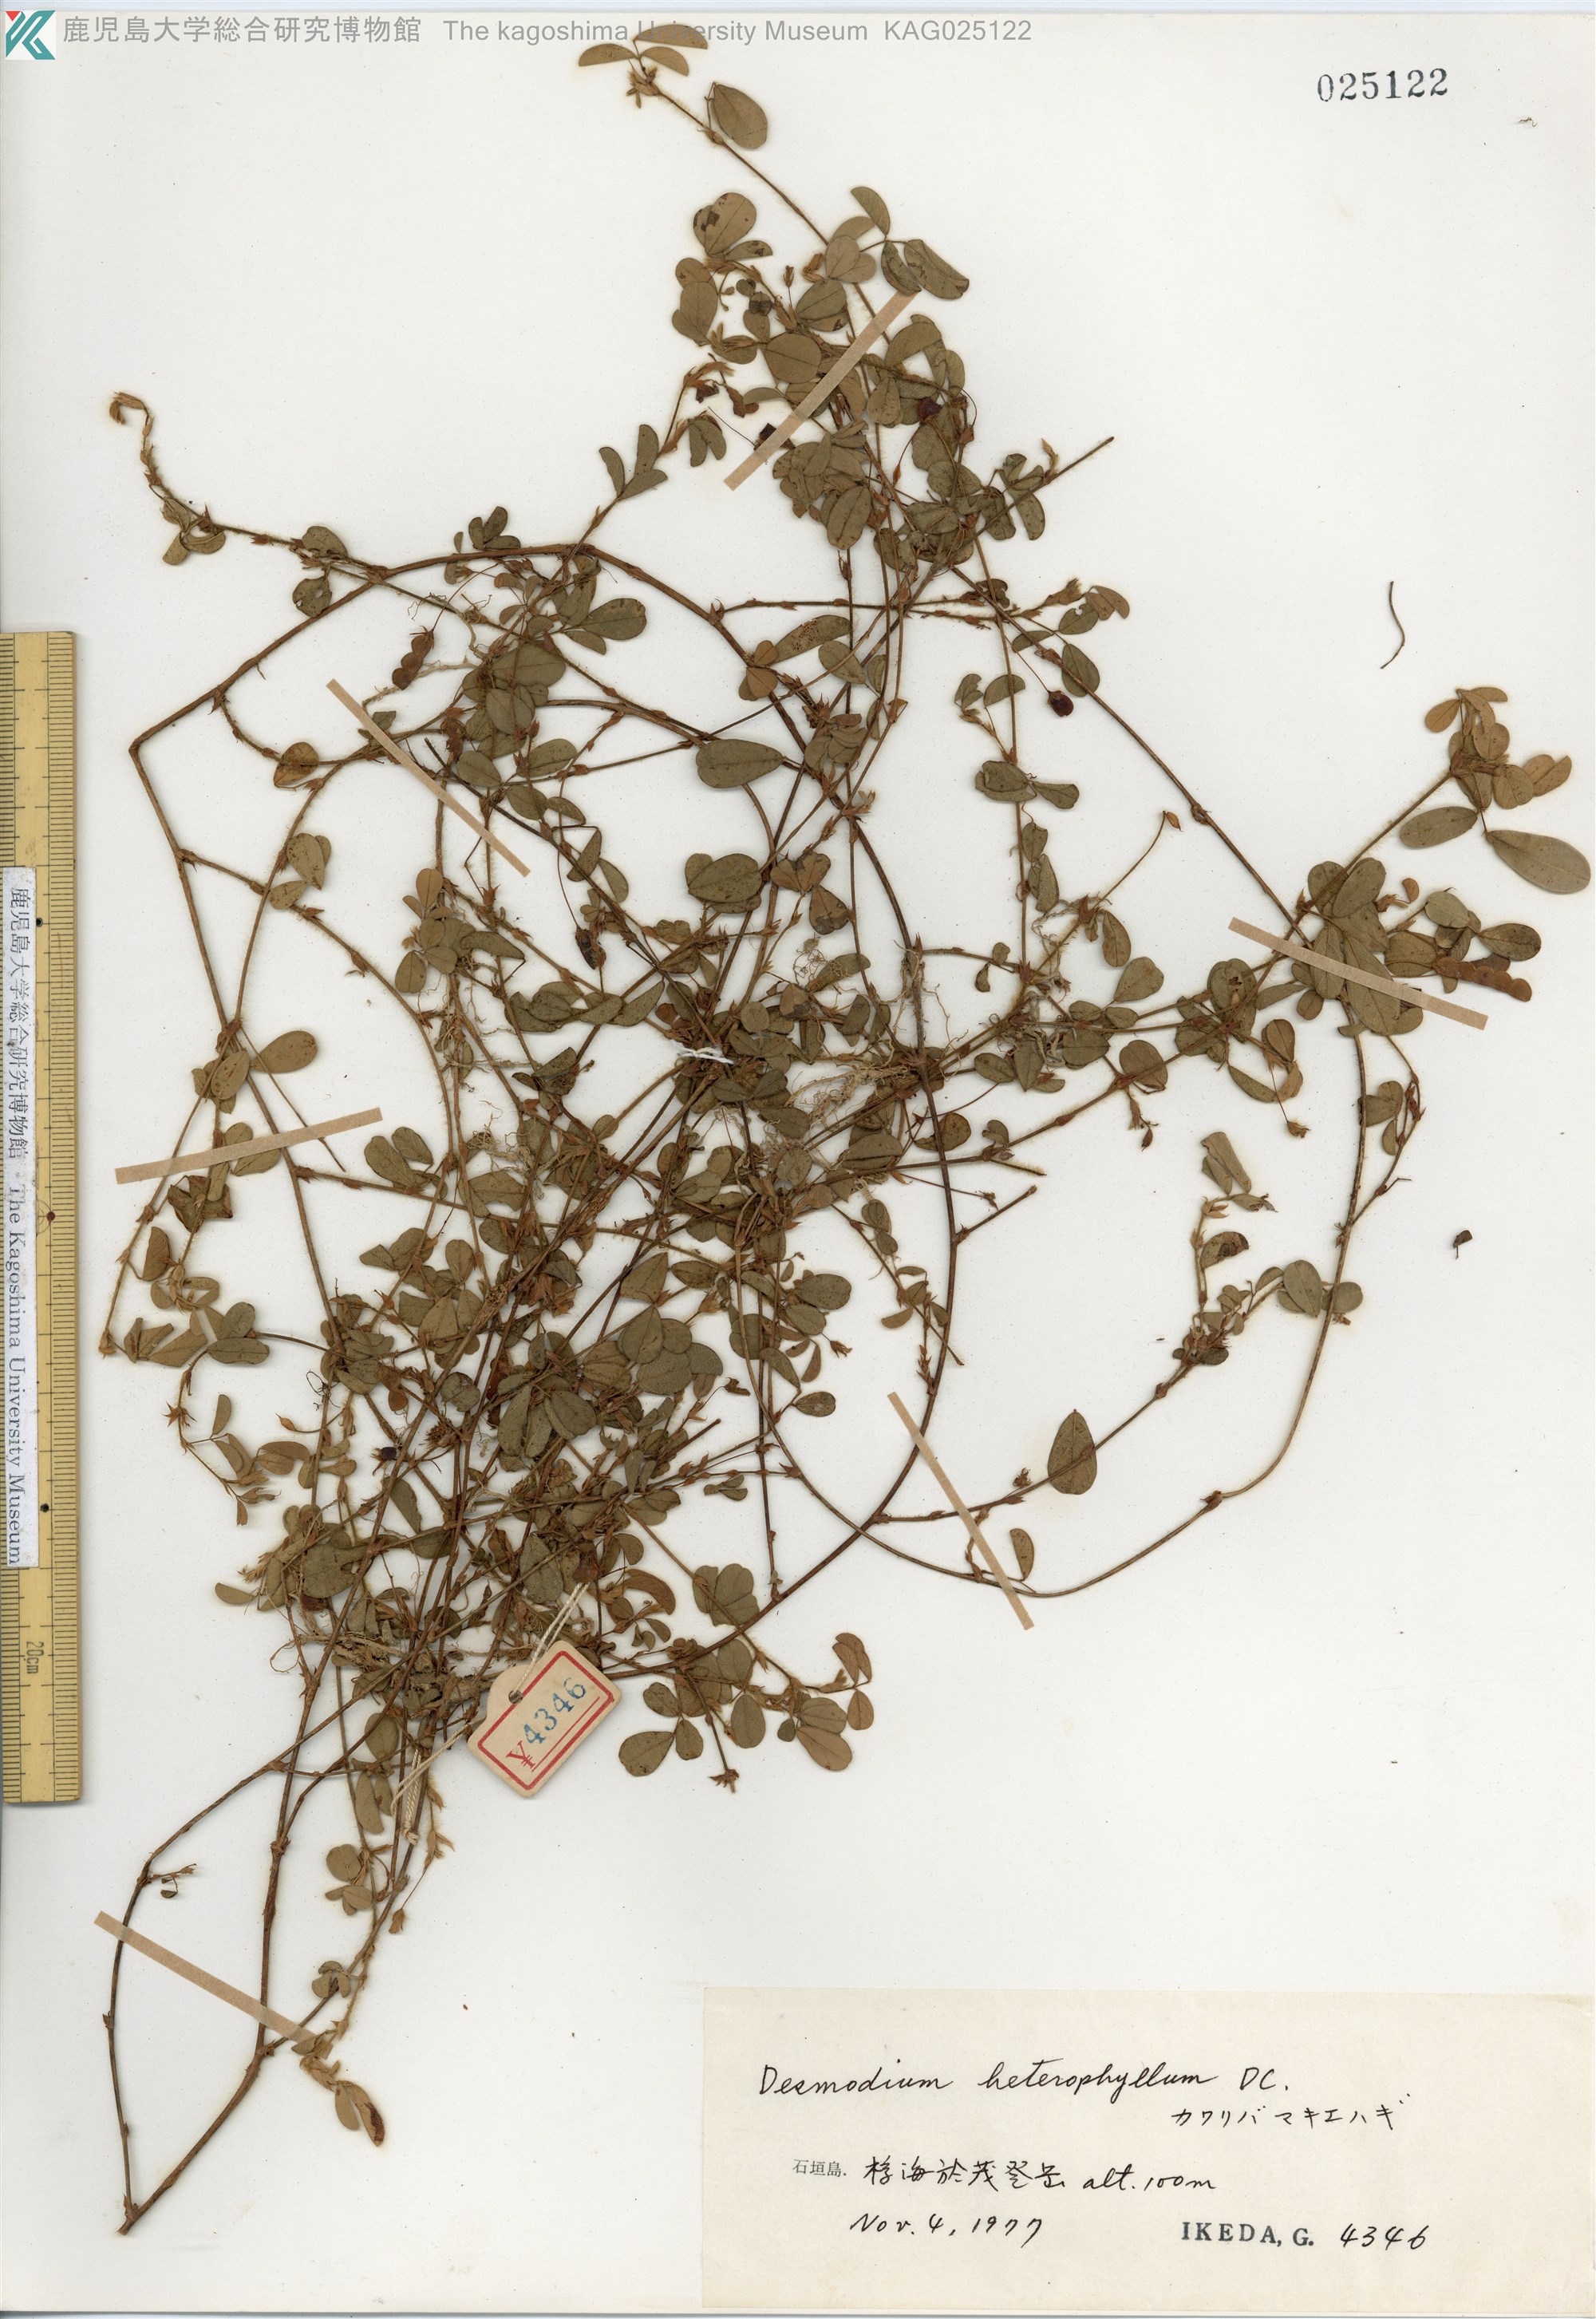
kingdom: Plantae
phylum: Tracheophyta
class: Magnoliopsida
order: Fabales
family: Fabaceae
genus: Desmodium
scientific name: Desmodium heterophyllum
